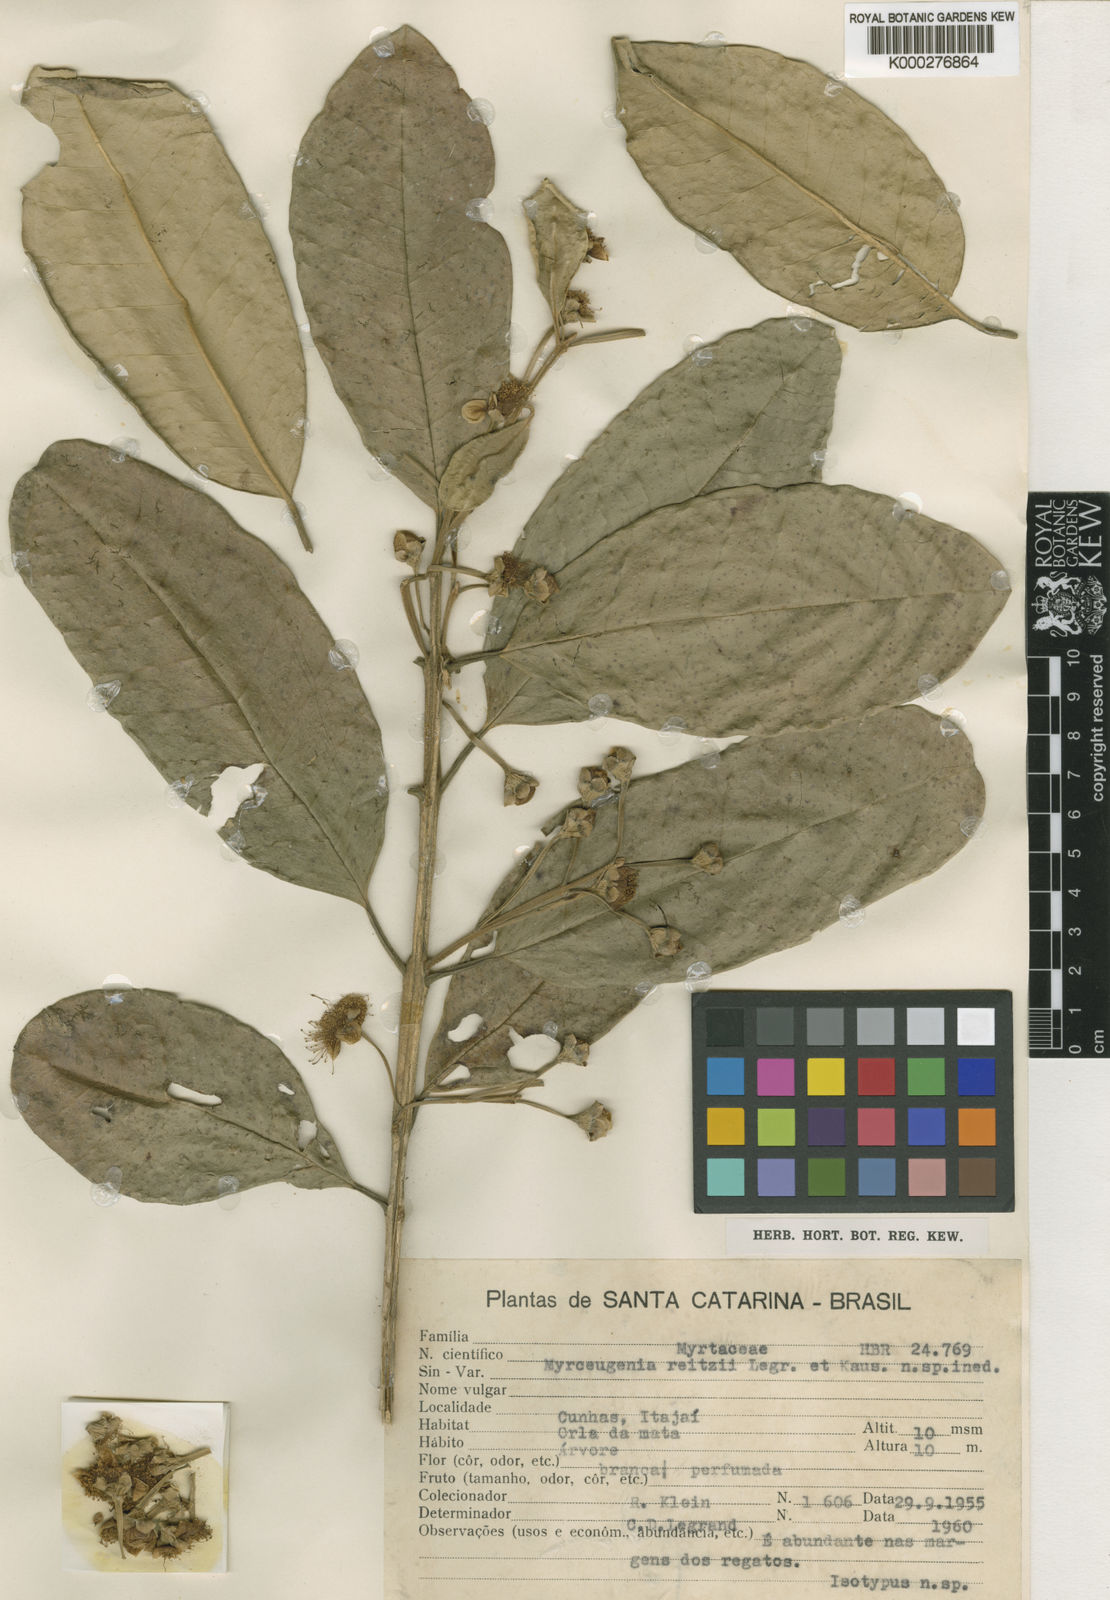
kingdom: Plantae
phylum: Tracheophyta
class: Magnoliopsida
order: Myrtales
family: Myrtaceae
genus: Myrceugenia
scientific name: Myrceugenia reitzii
